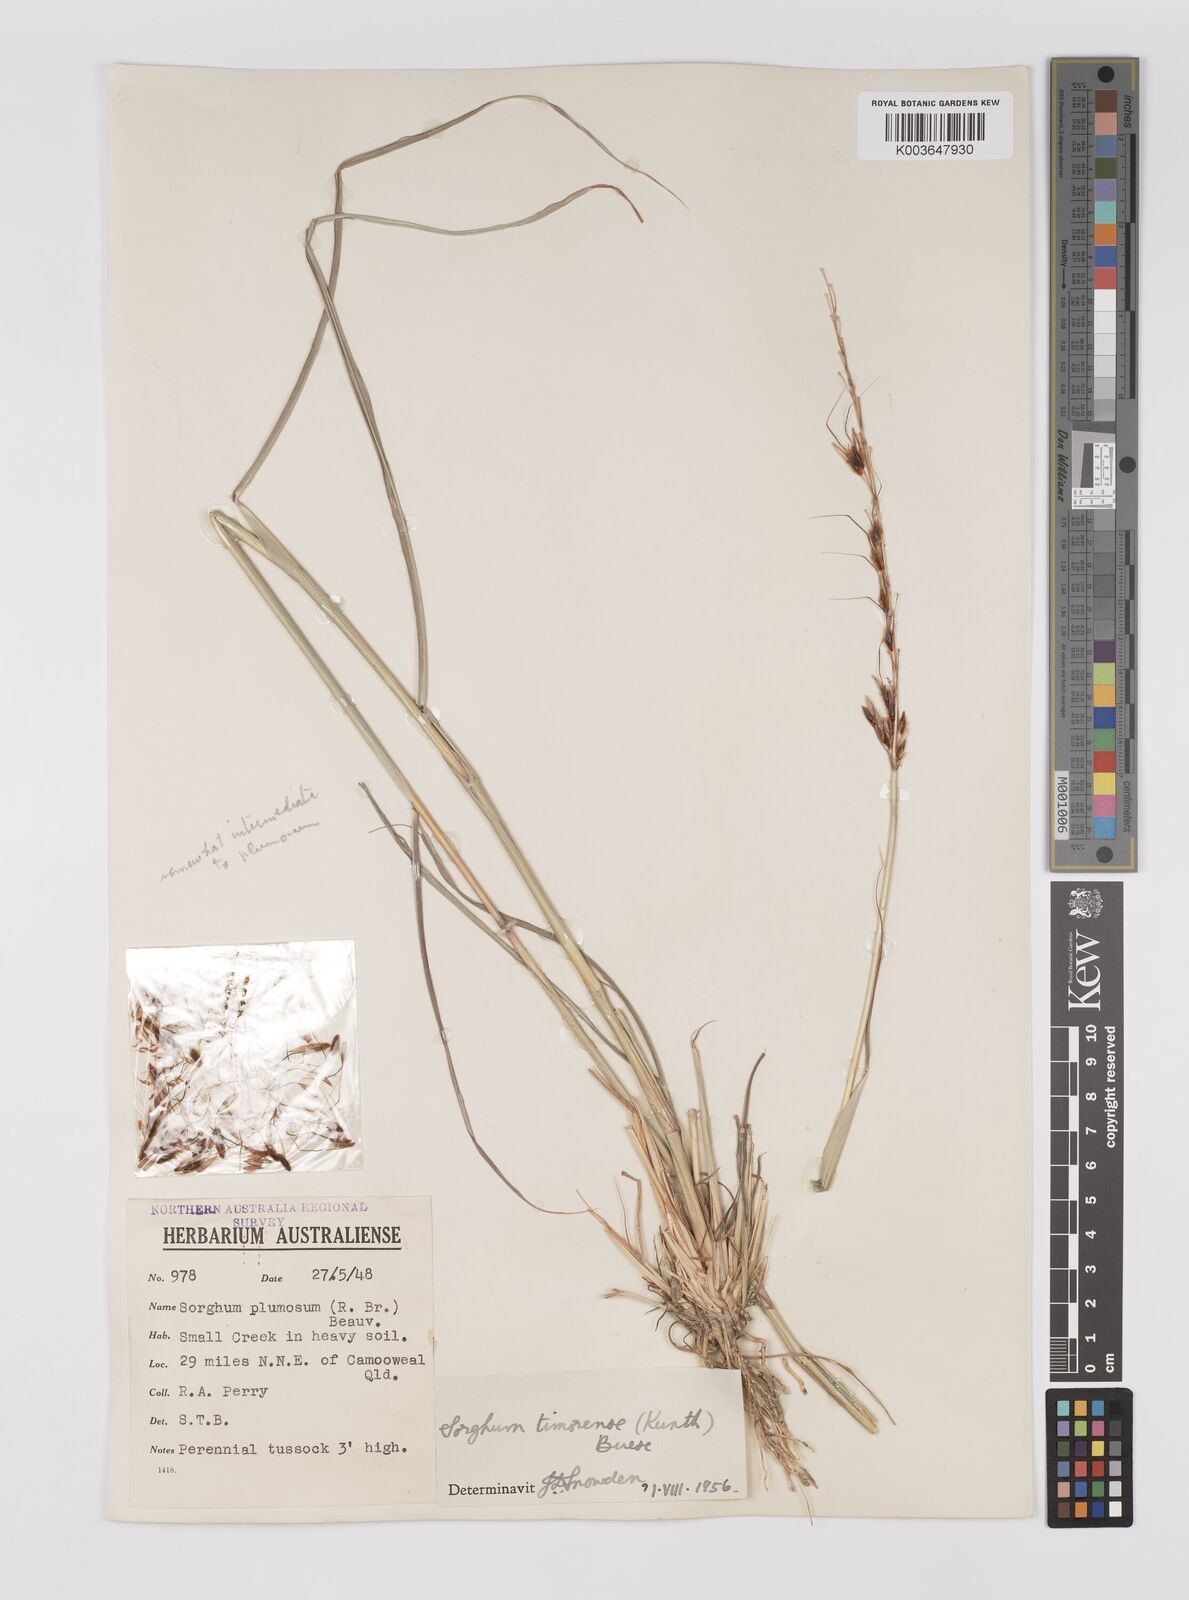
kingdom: Plantae
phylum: Tracheophyta
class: Liliopsida
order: Poales
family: Poaceae
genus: Sarga
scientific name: Sarga timorensis
